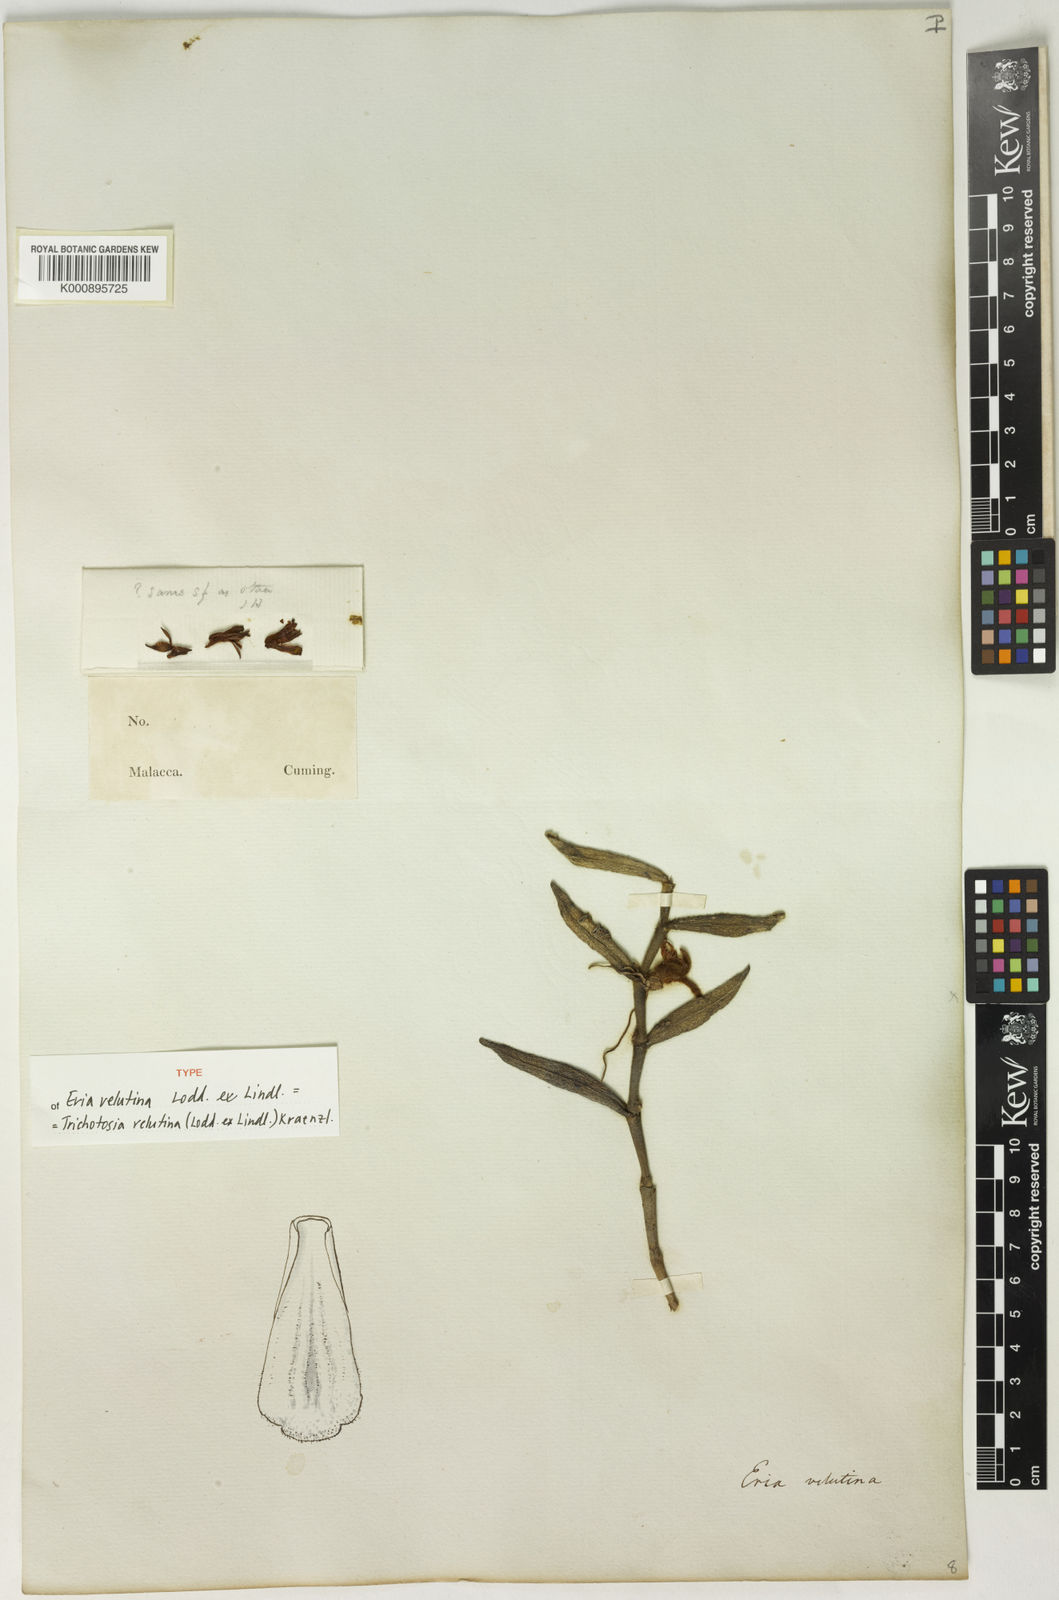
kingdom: Plantae
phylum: Tracheophyta
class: Liliopsida
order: Asparagales
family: Orchidaceae
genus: Trichotosia
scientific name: Trichotosia velutina
